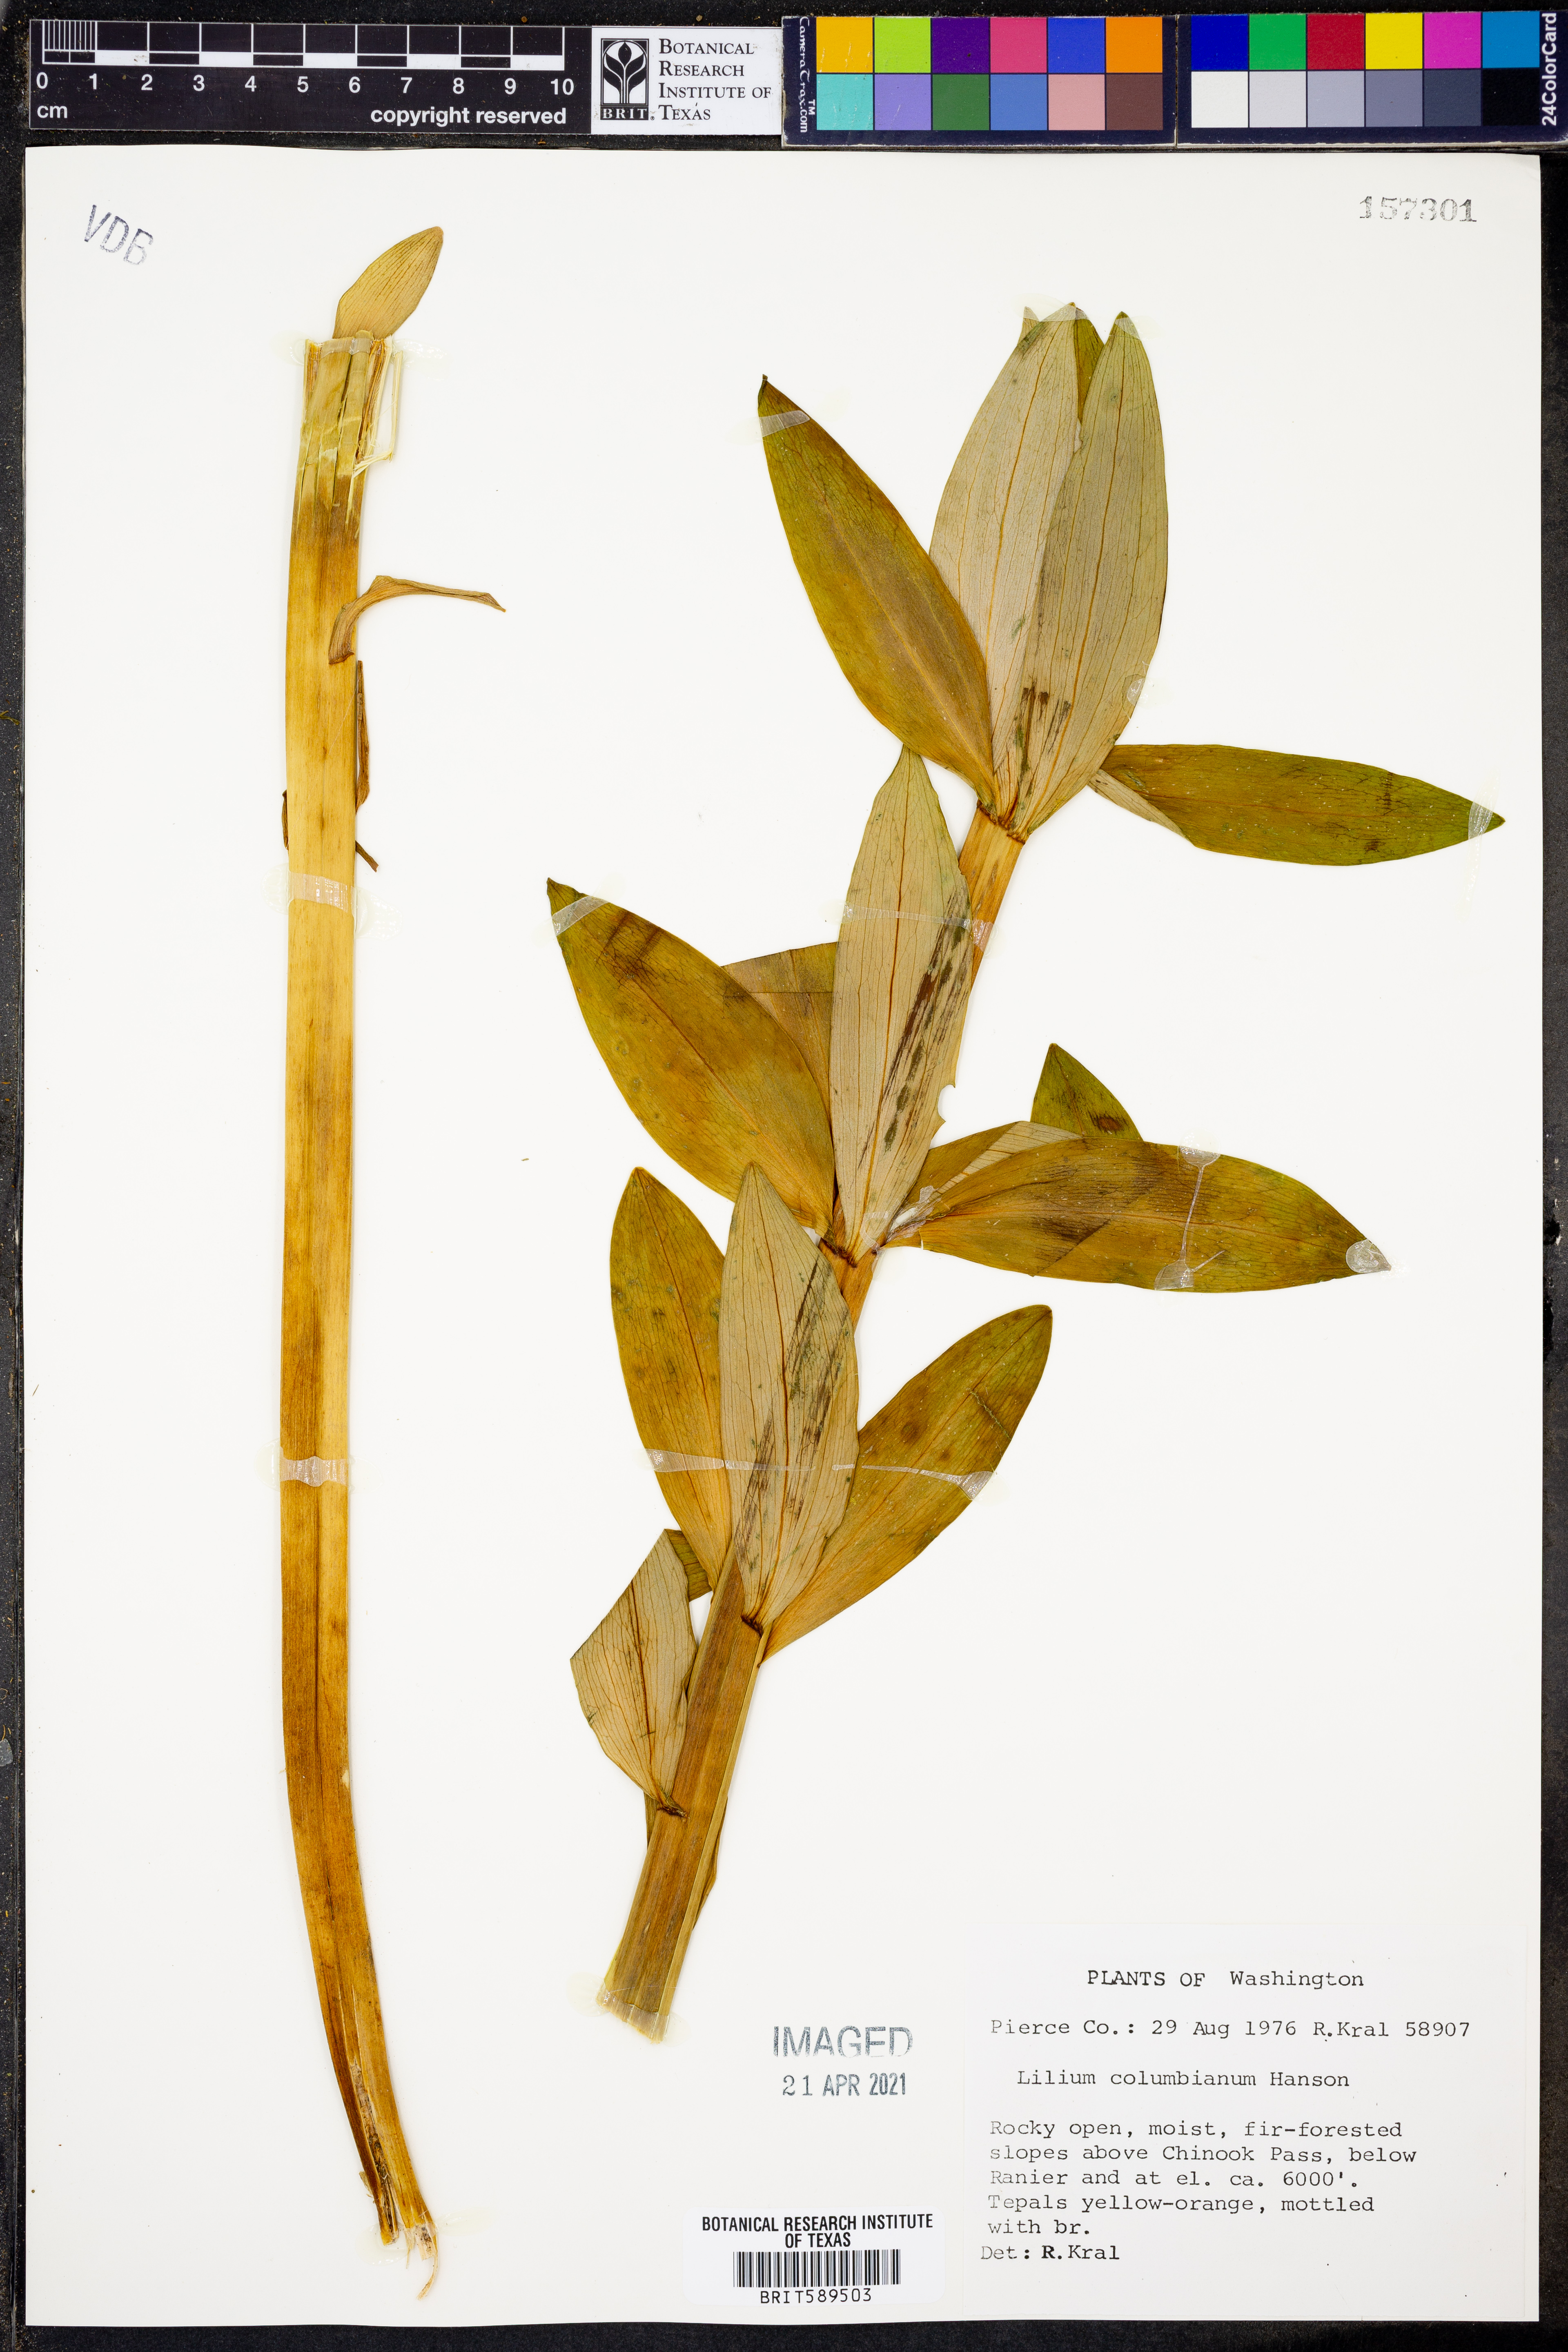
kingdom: Plantae
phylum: Tracheophyta
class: Liliopsida
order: Liliales
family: Liliaceae
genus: Lilium
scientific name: Lilium columbianum
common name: Columbia lily
